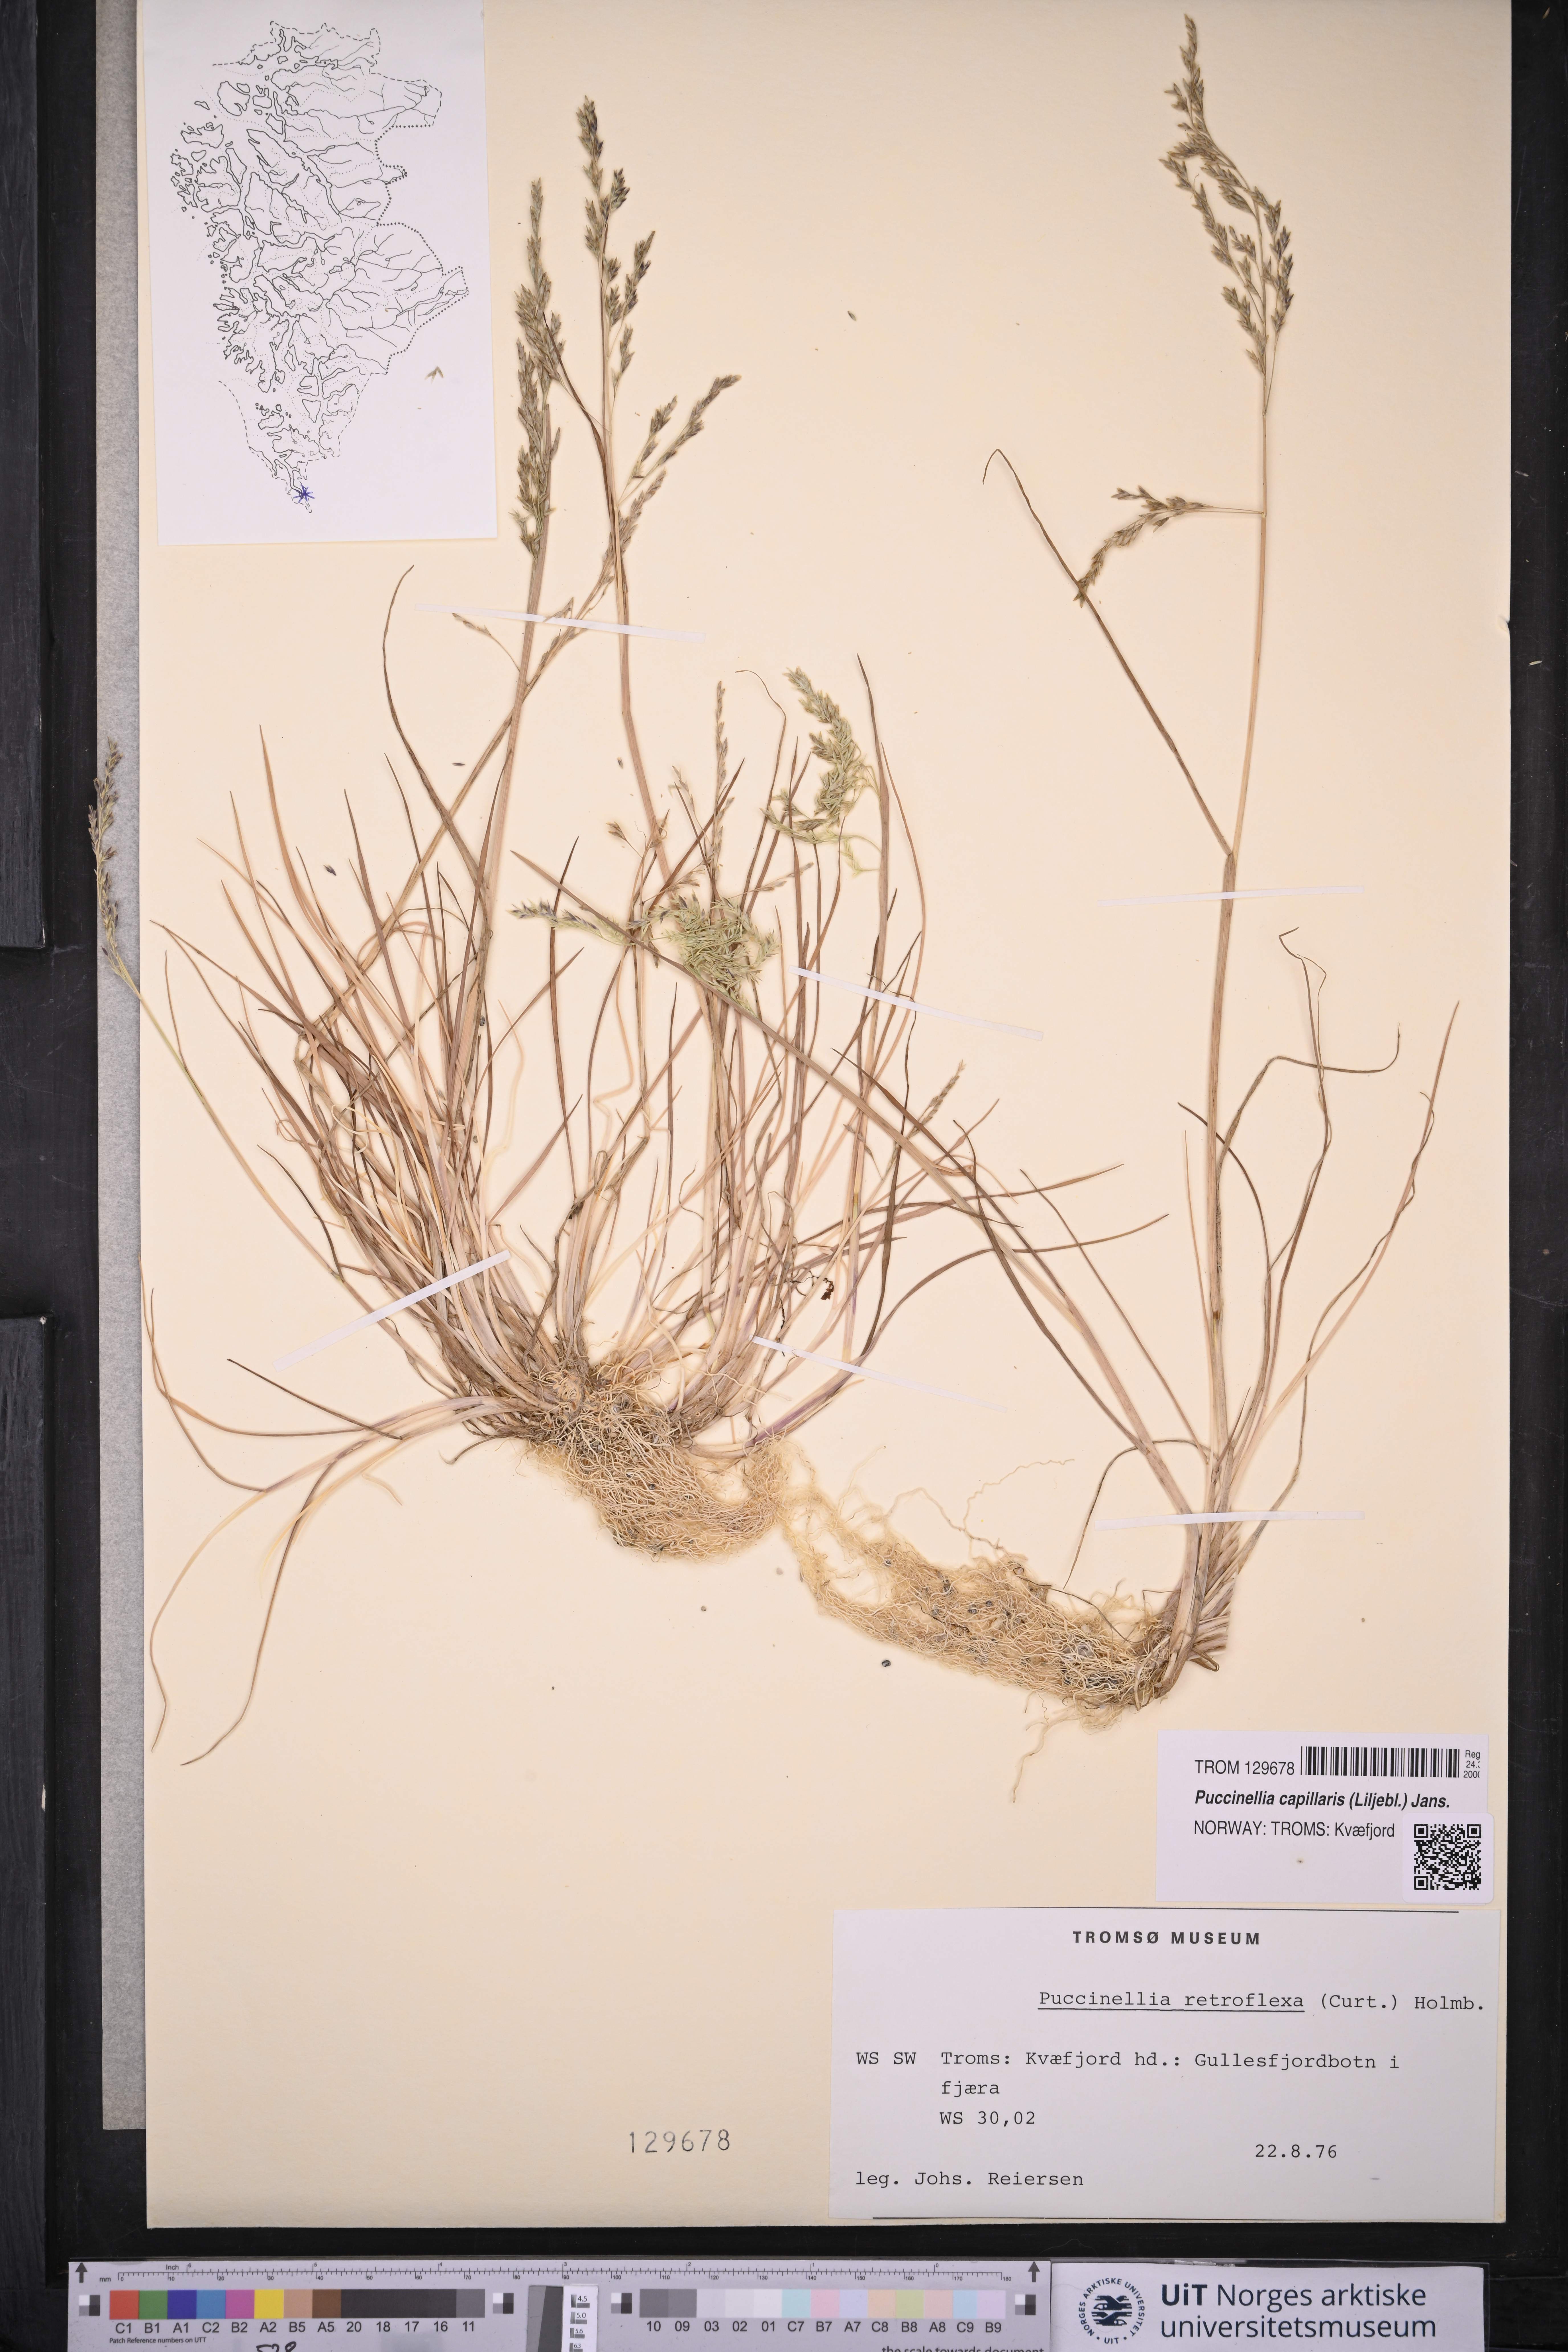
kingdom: Plantae
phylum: Tracheophyta
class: Liliopsida
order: Poales
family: Poaceae
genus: Puccinellia
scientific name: Puccinellia distans
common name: Weeping alkaligrass
